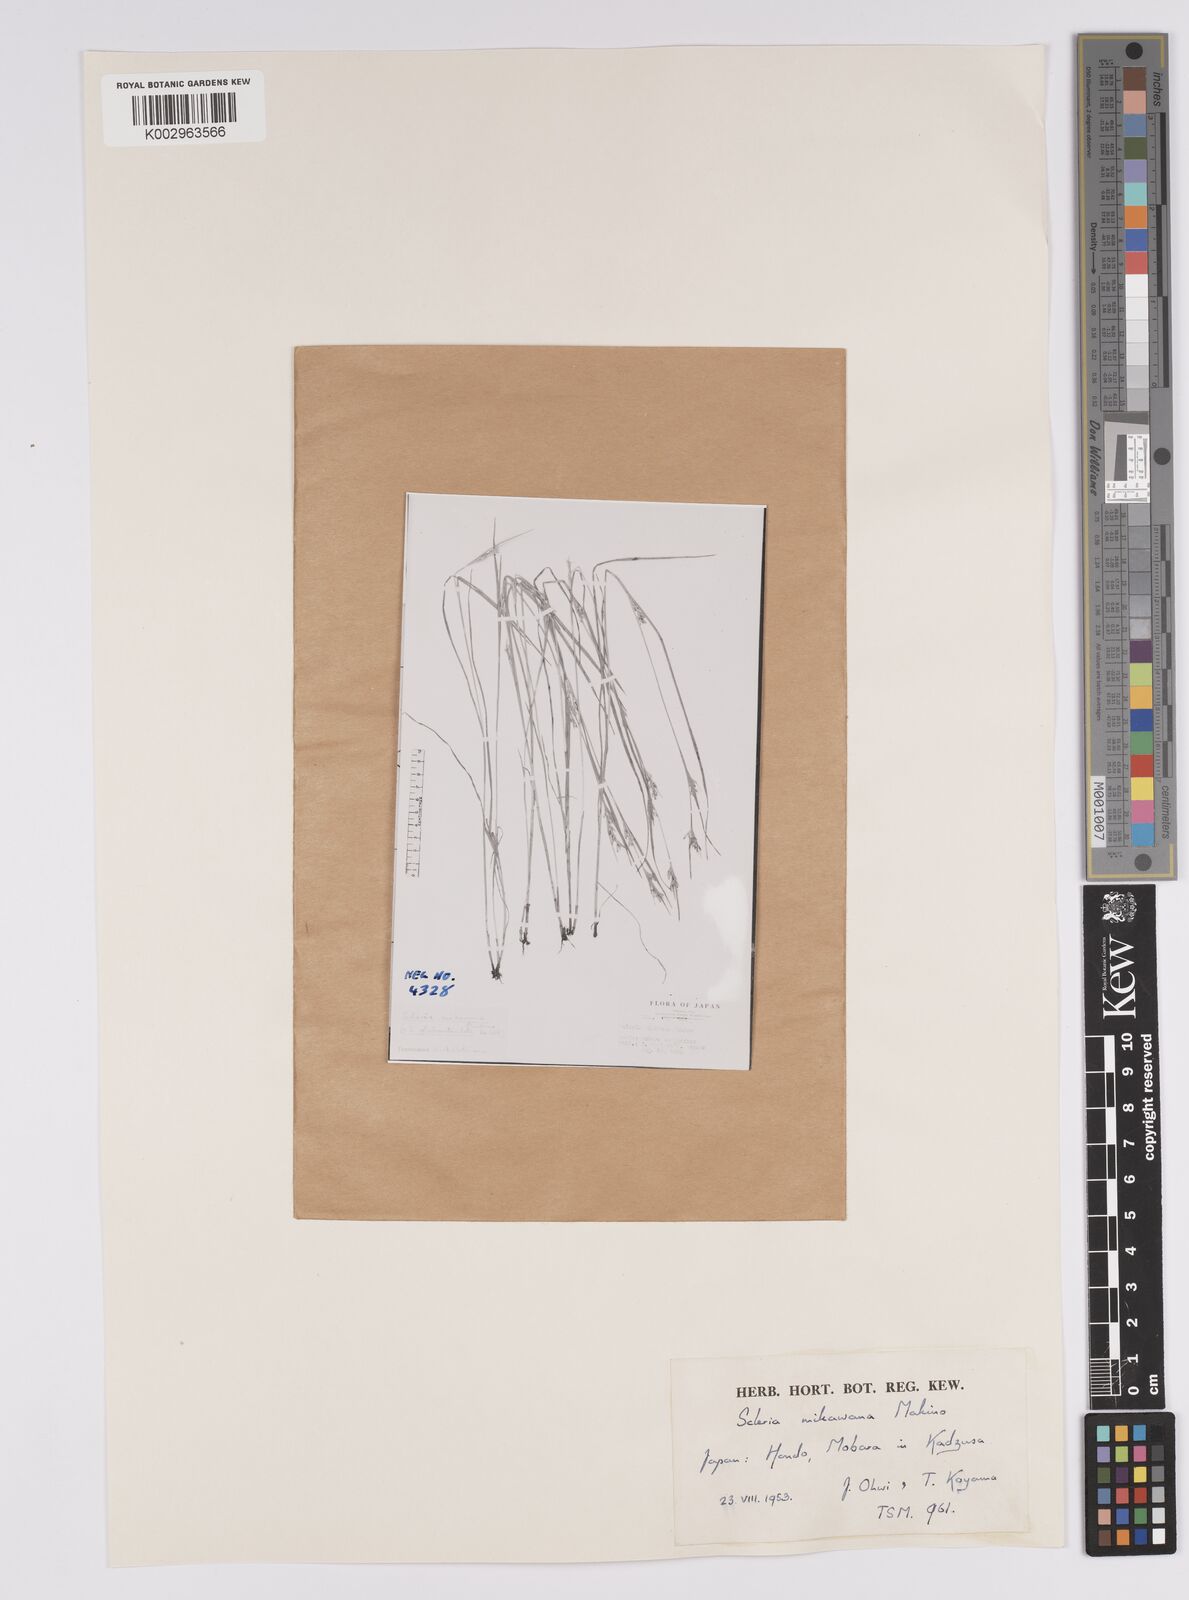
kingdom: Plantae
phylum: Tracheophyta
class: Liliopsida
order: Poales
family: Cyperaceae
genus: Scleria
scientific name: Scleria mikawana
